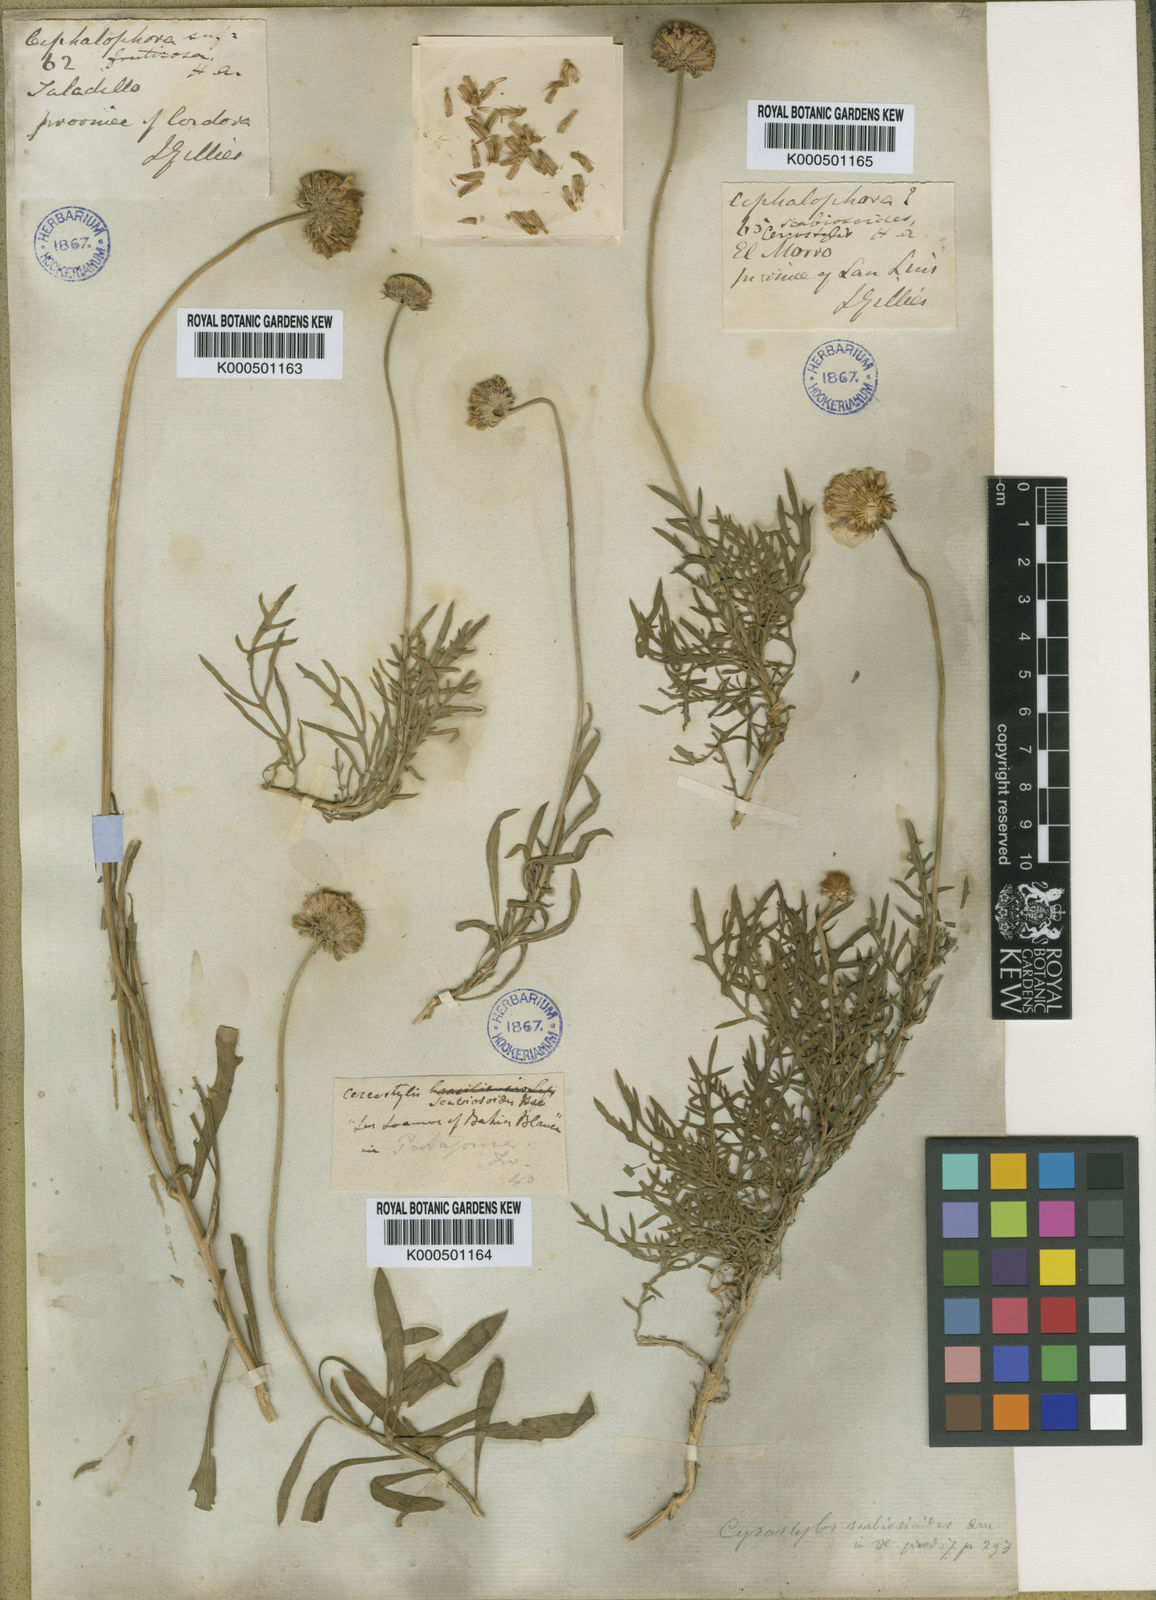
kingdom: Plantae
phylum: Tracheophyta
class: Magnoliopsida
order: Asterales
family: Asteraceae
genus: Gaillardia
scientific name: Gaillardia megapotamica
